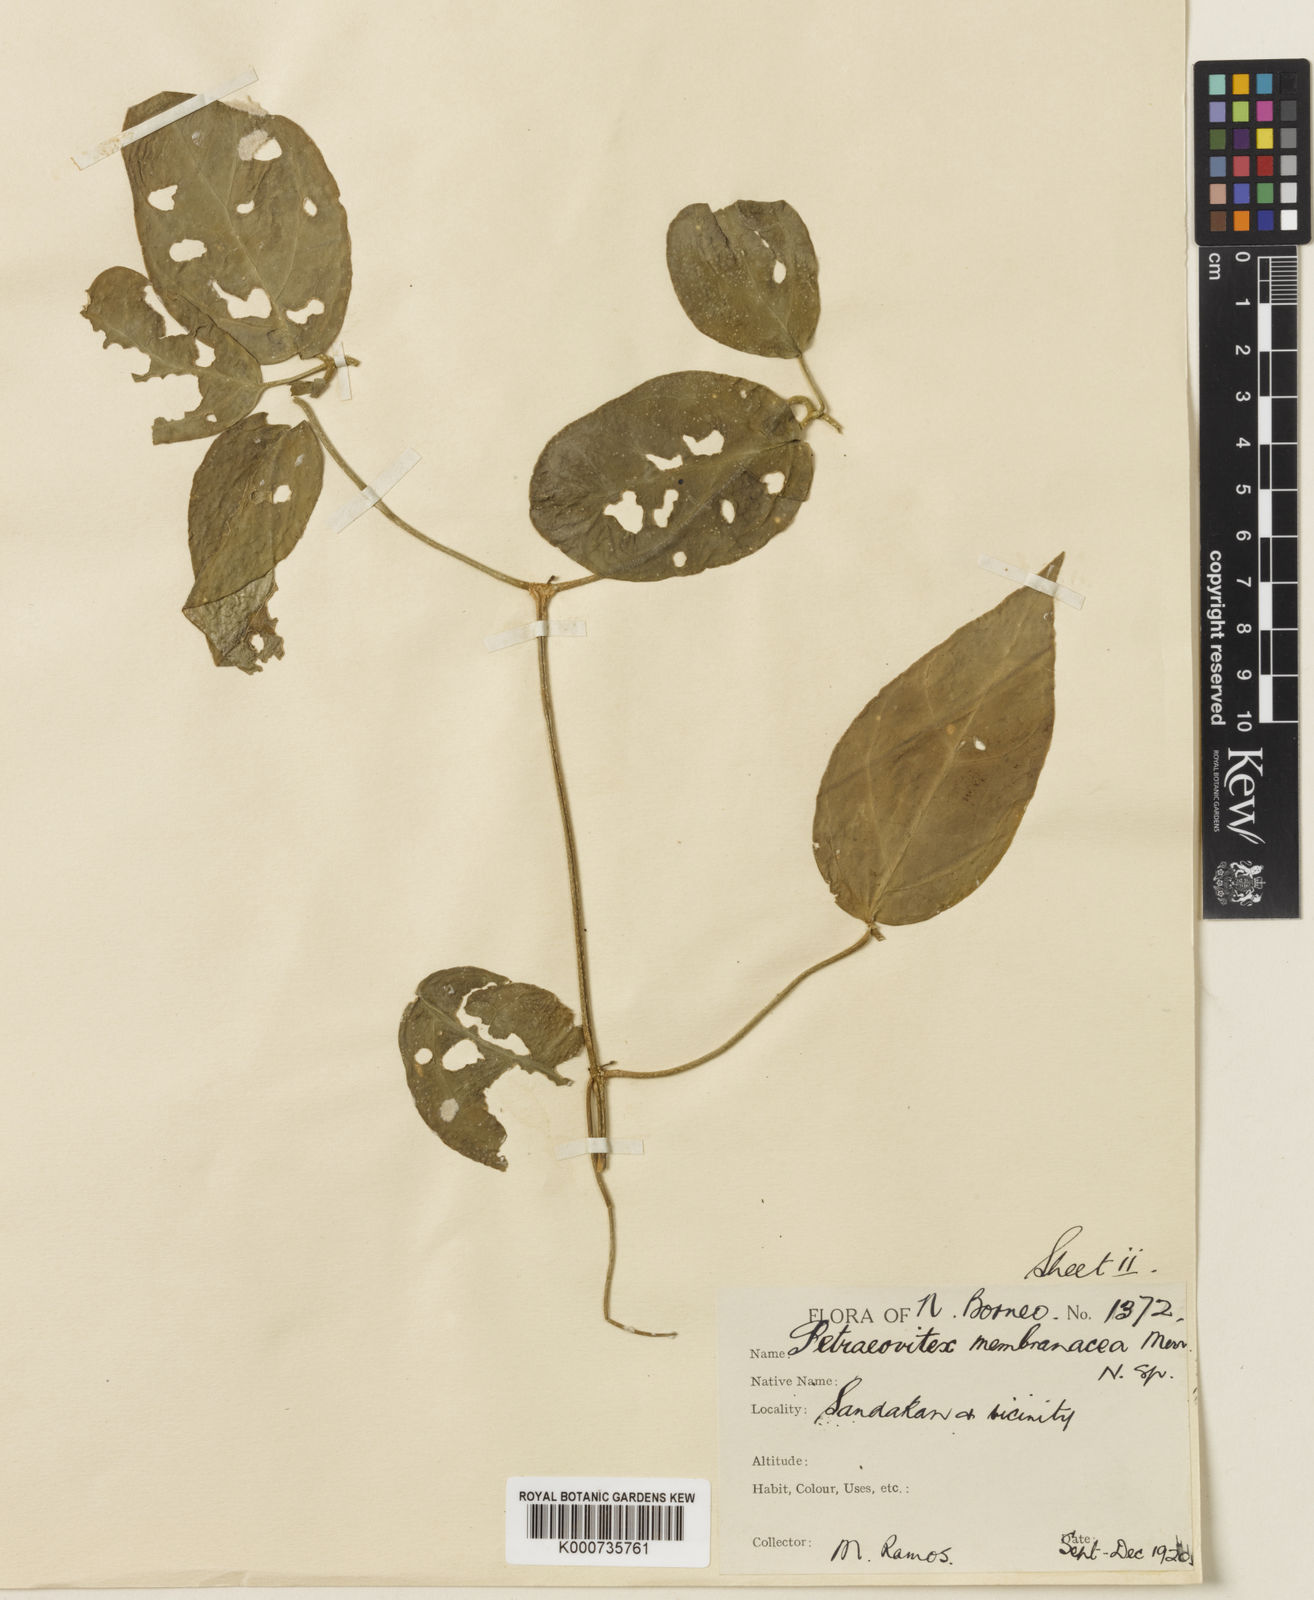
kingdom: Plantae
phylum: Tracheophyta
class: Magnoliopsida
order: Lamiales
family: Lamiaceae
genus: Petraeovitex
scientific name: Petraeovitex membranacea
